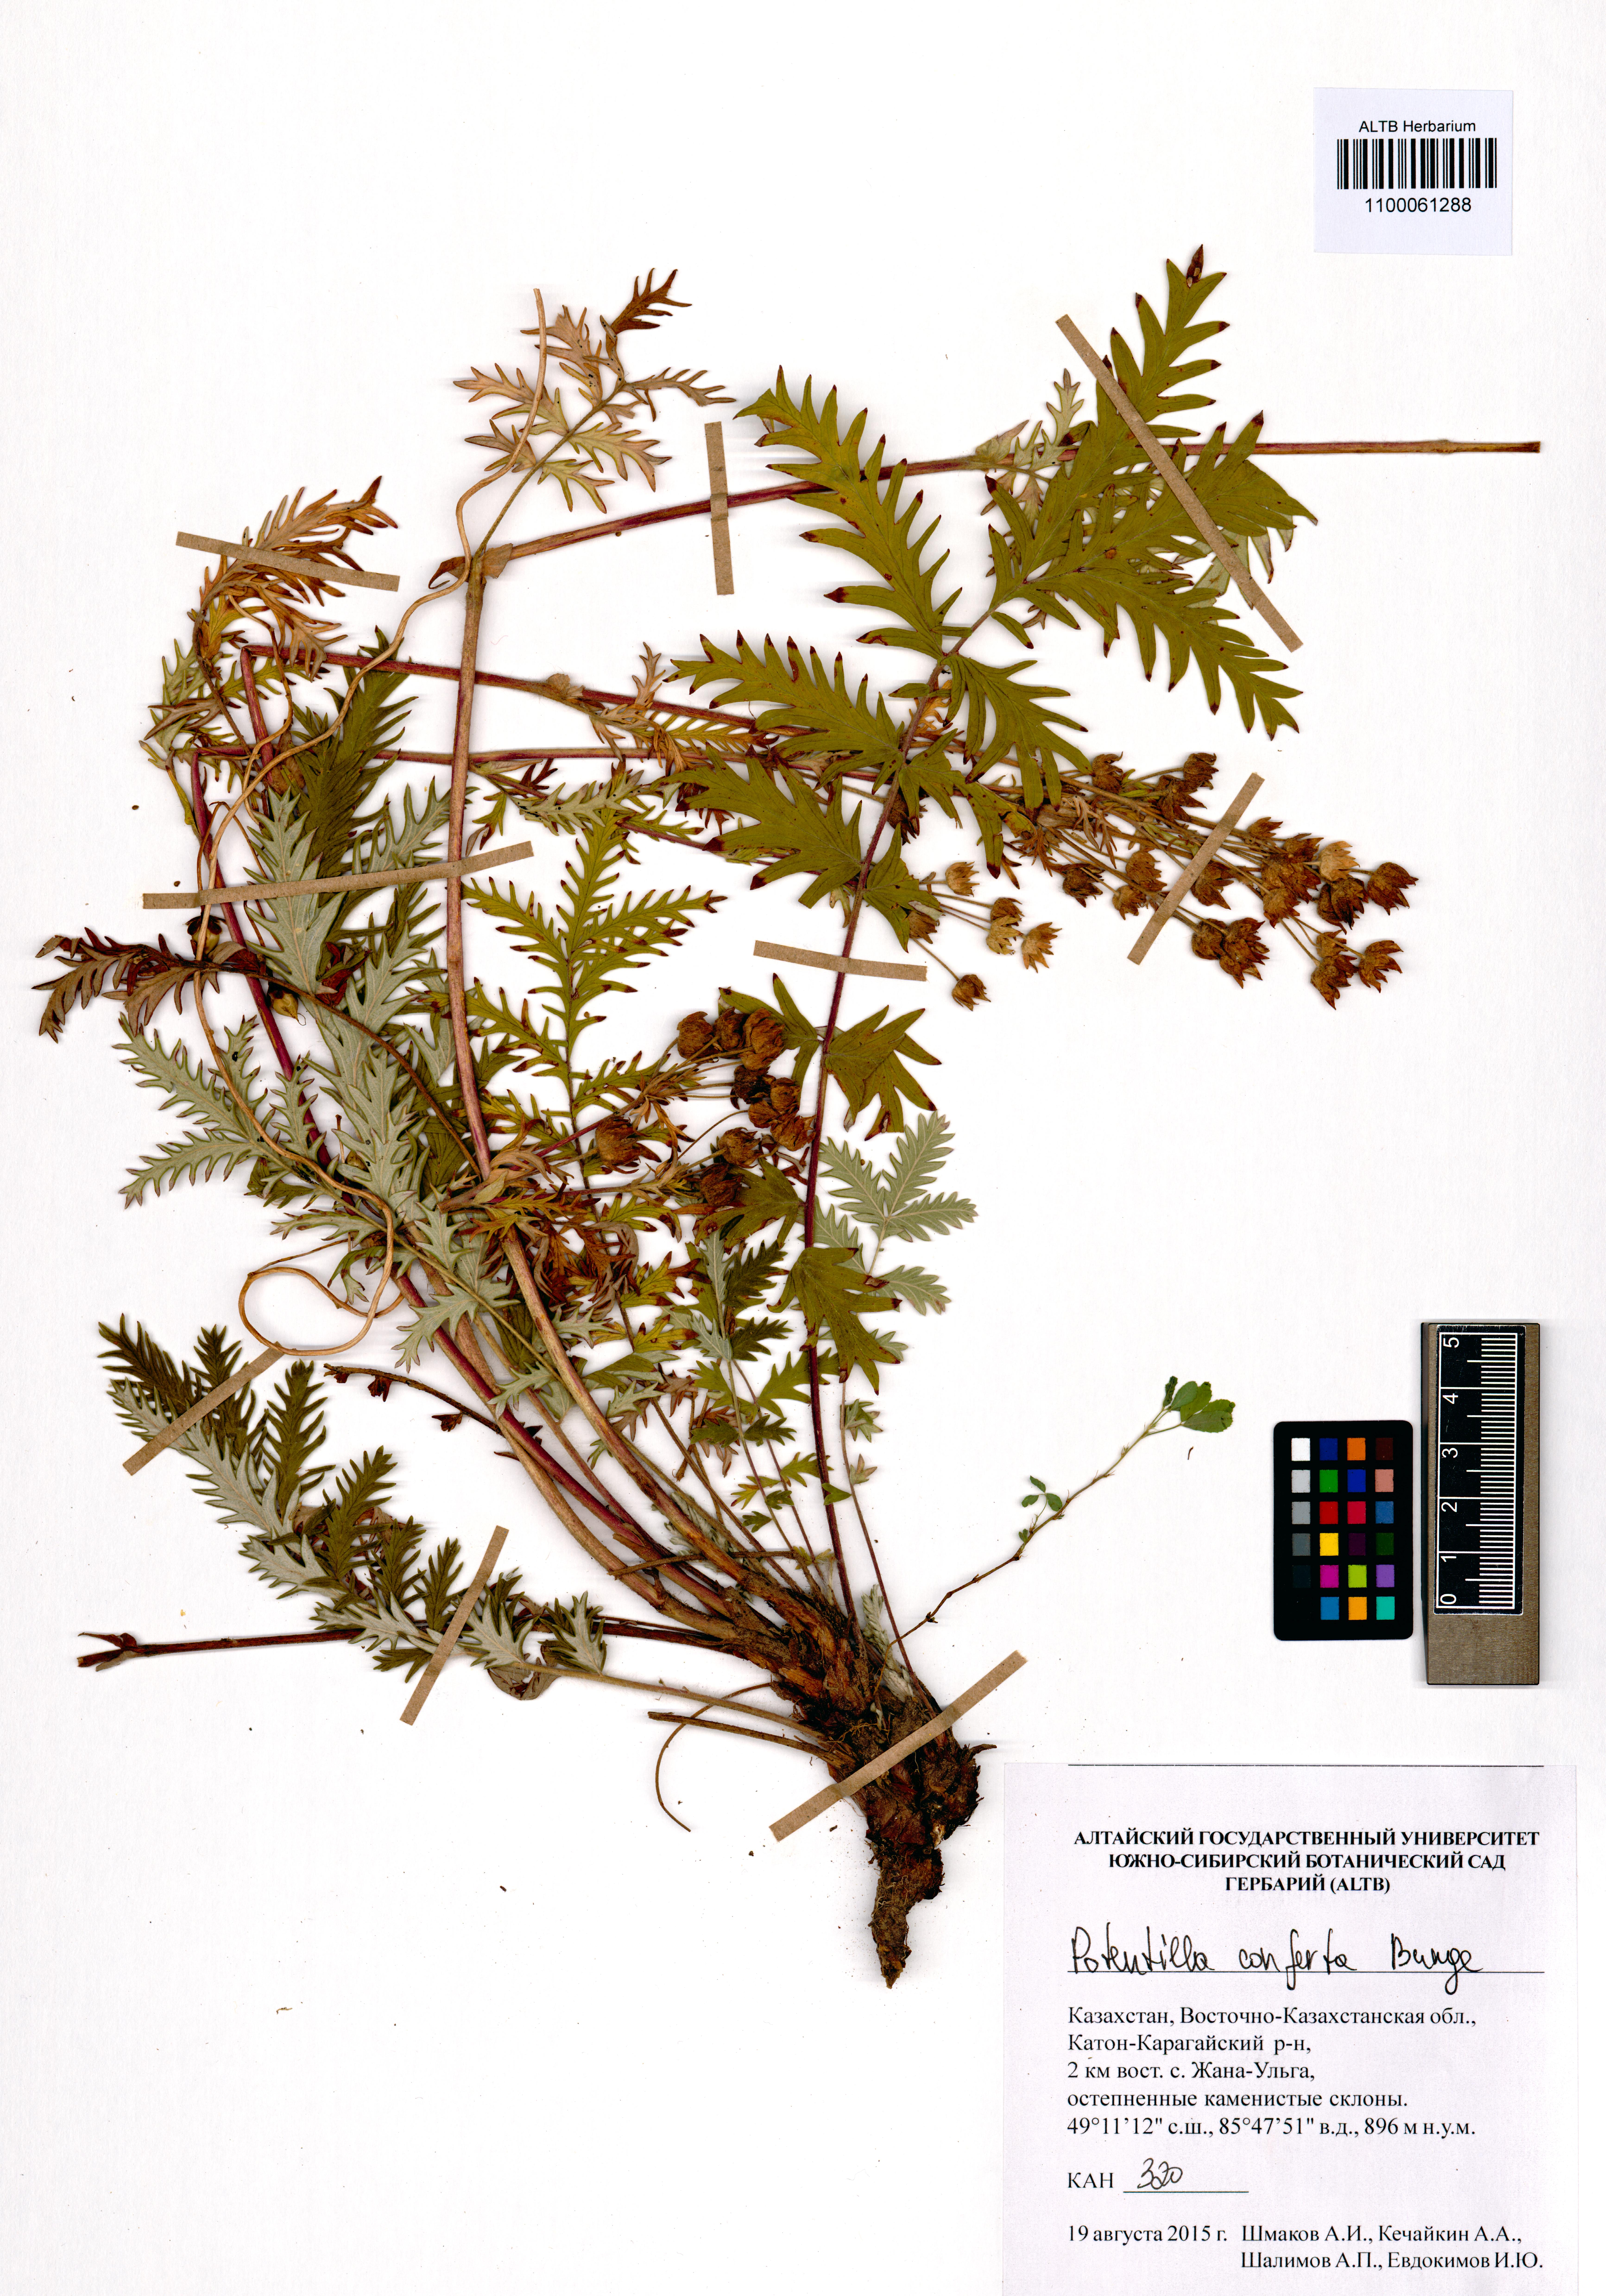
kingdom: Plantae
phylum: Tracheophyta
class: Magnoliopsida
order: Rosales
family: Rosaceae
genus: Potentilla
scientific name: Potentilla conferta
